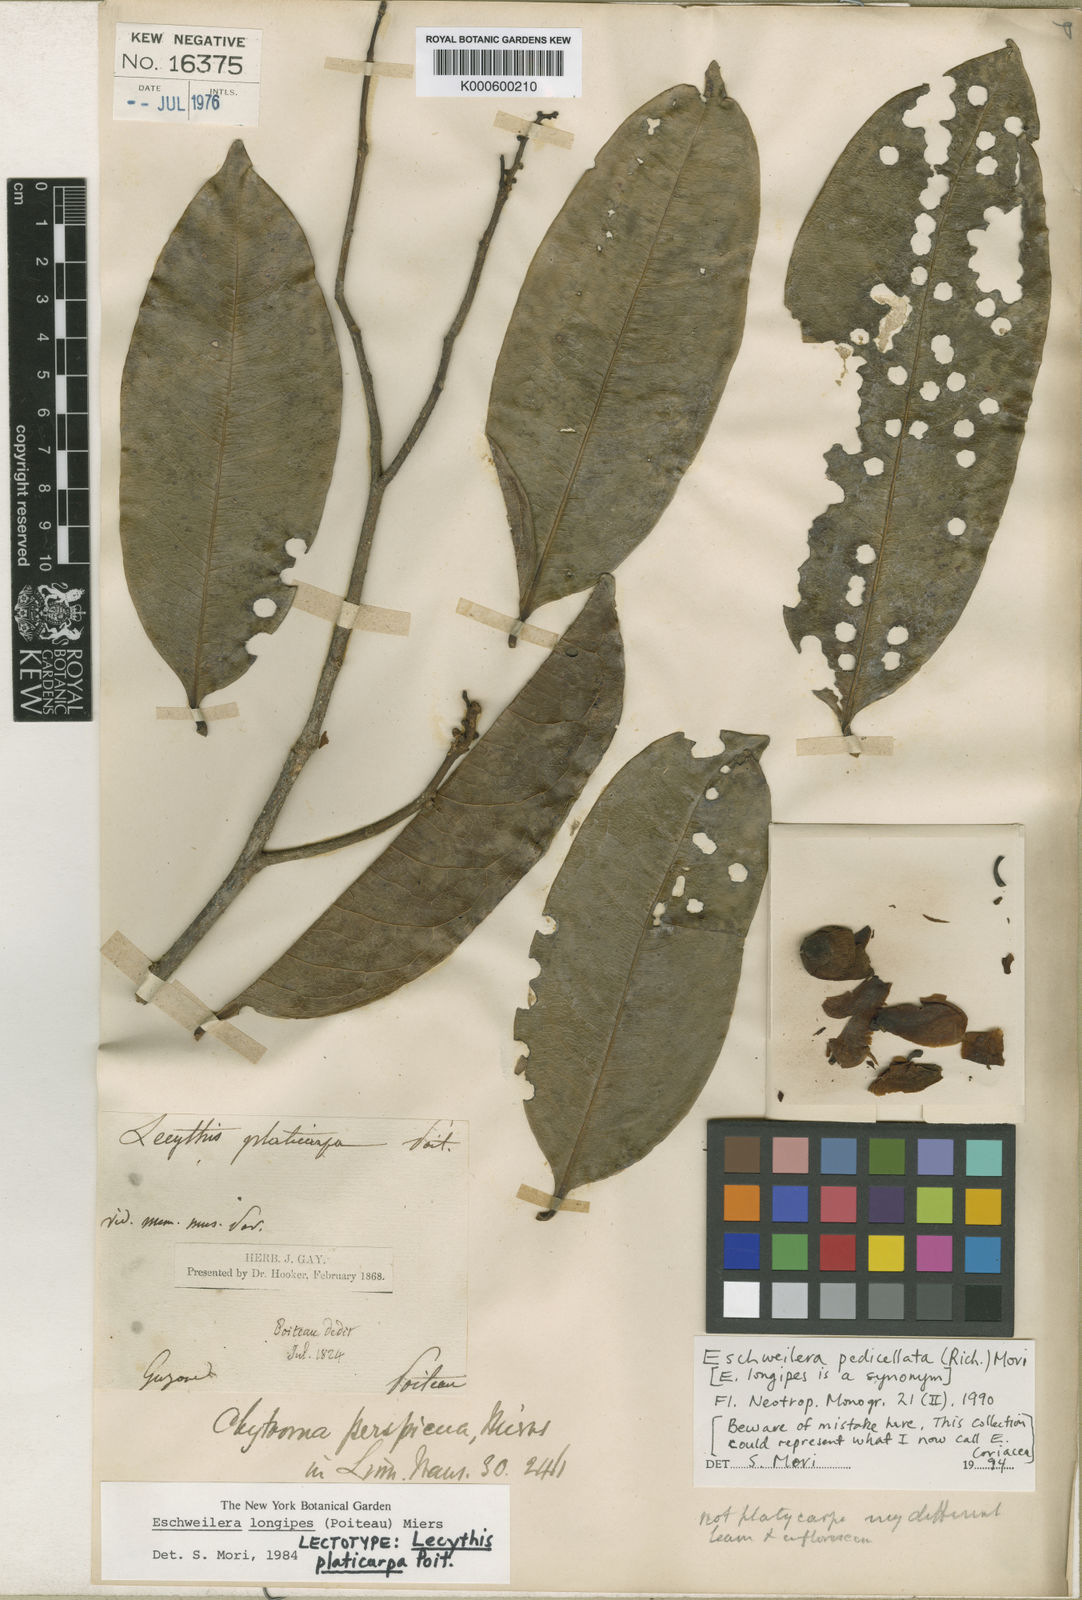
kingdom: Plantae
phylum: Tracheophyta
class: Magnoliopsida
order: Ericales
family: Lecythidaceae
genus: Eschweilera
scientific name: Eschweilera pedicellata
